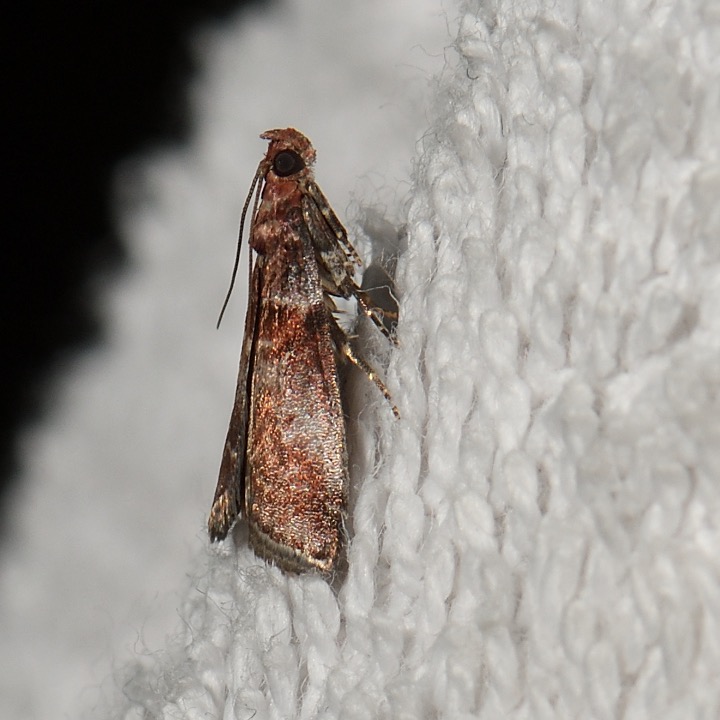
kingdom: Animalia
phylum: Arthropoda
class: Insecta
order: Lepidoptera
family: Pyralidae
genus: Acrobasis
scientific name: Acrobasis advenella
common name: Rønnehalvmøl
